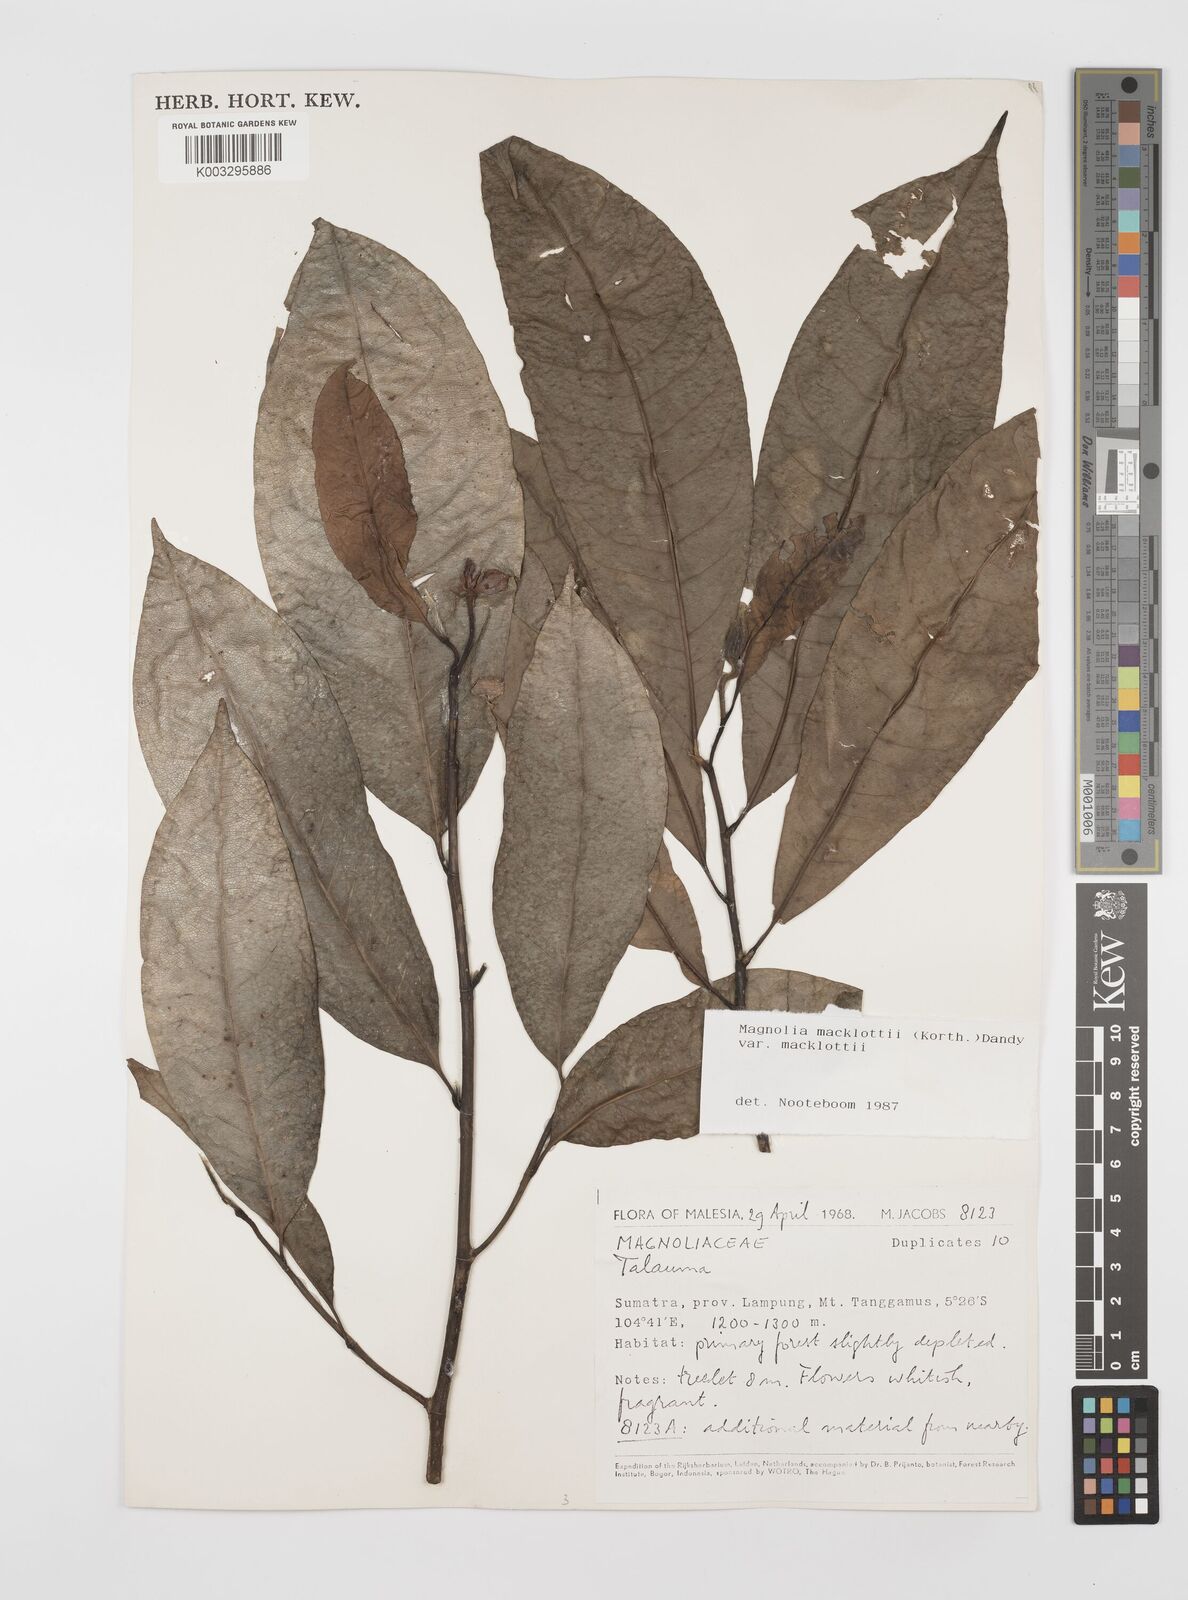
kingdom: Plantae
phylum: Tracheophyta
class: Magnoliopsida
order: Magnoliales
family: Magnoliaceae
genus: Magnolia
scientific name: Magnolia macklottii
